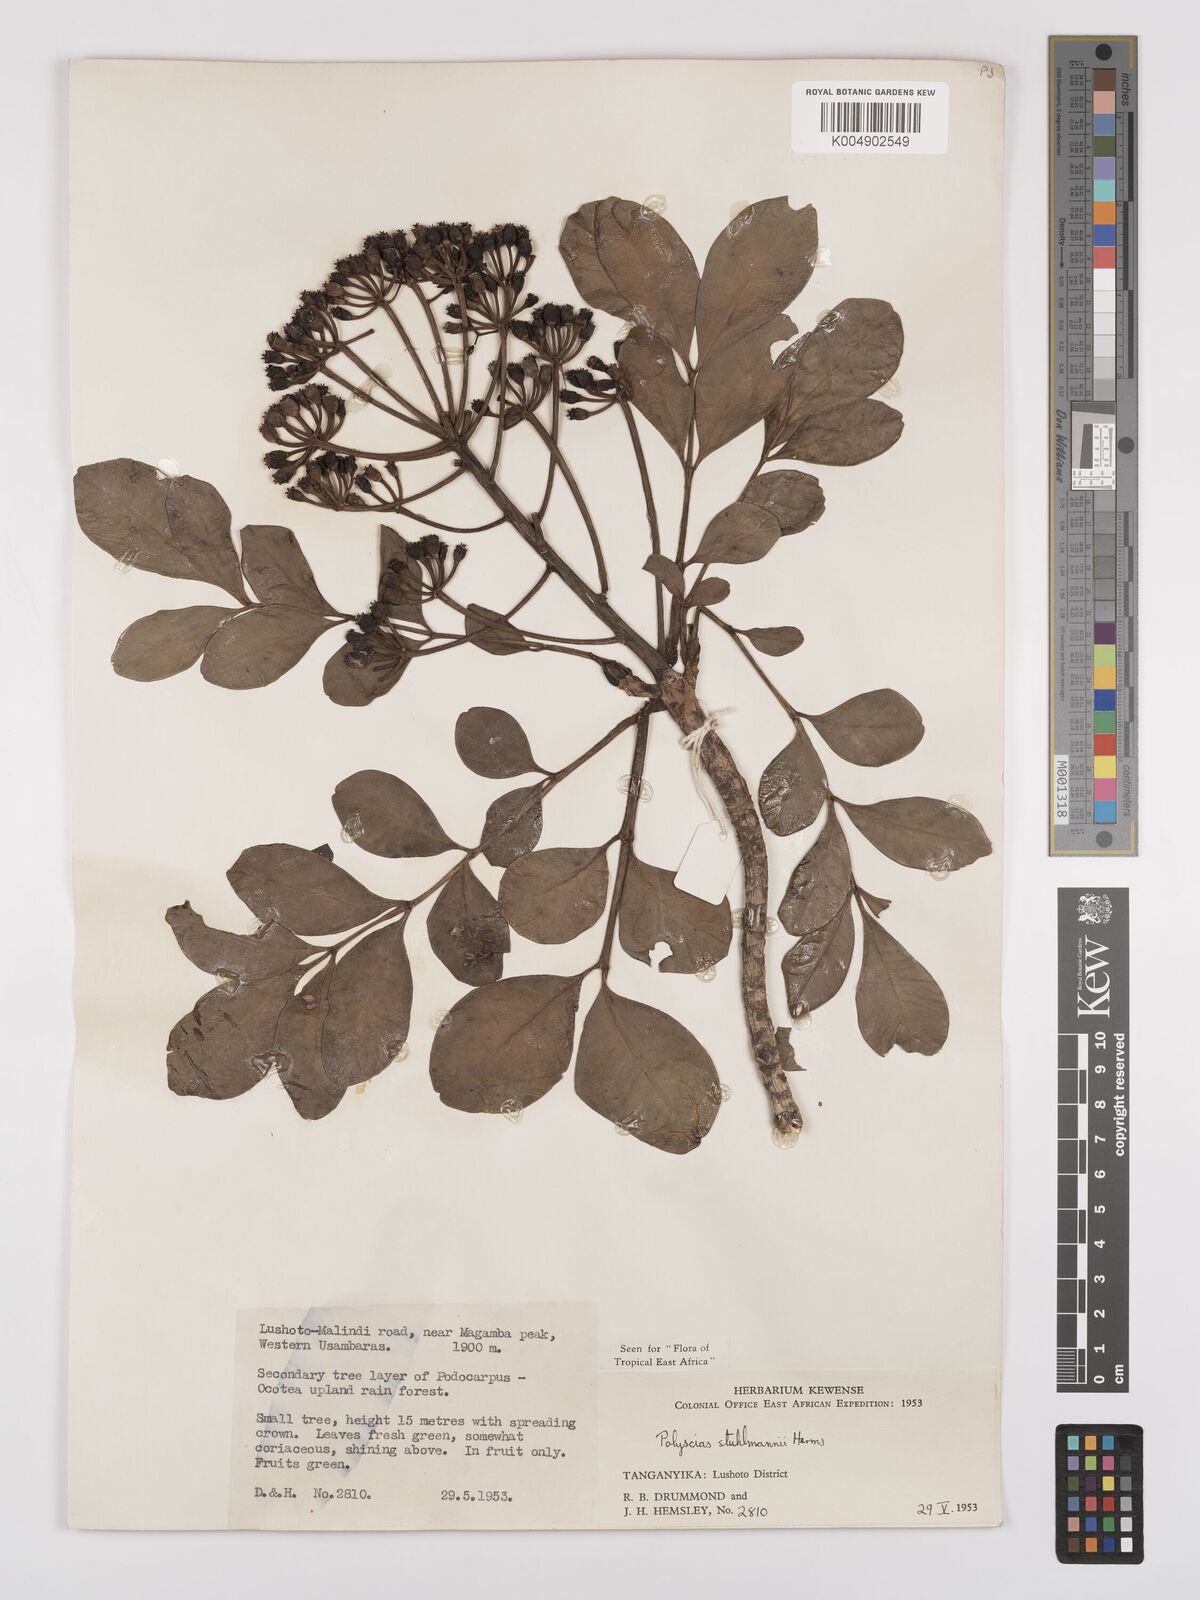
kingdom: Plantae
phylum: Tracheophyta
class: Magnoliopsida
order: Apiales
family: Araliaceae
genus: Polyscias
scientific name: Polyscias stuhlmannii
